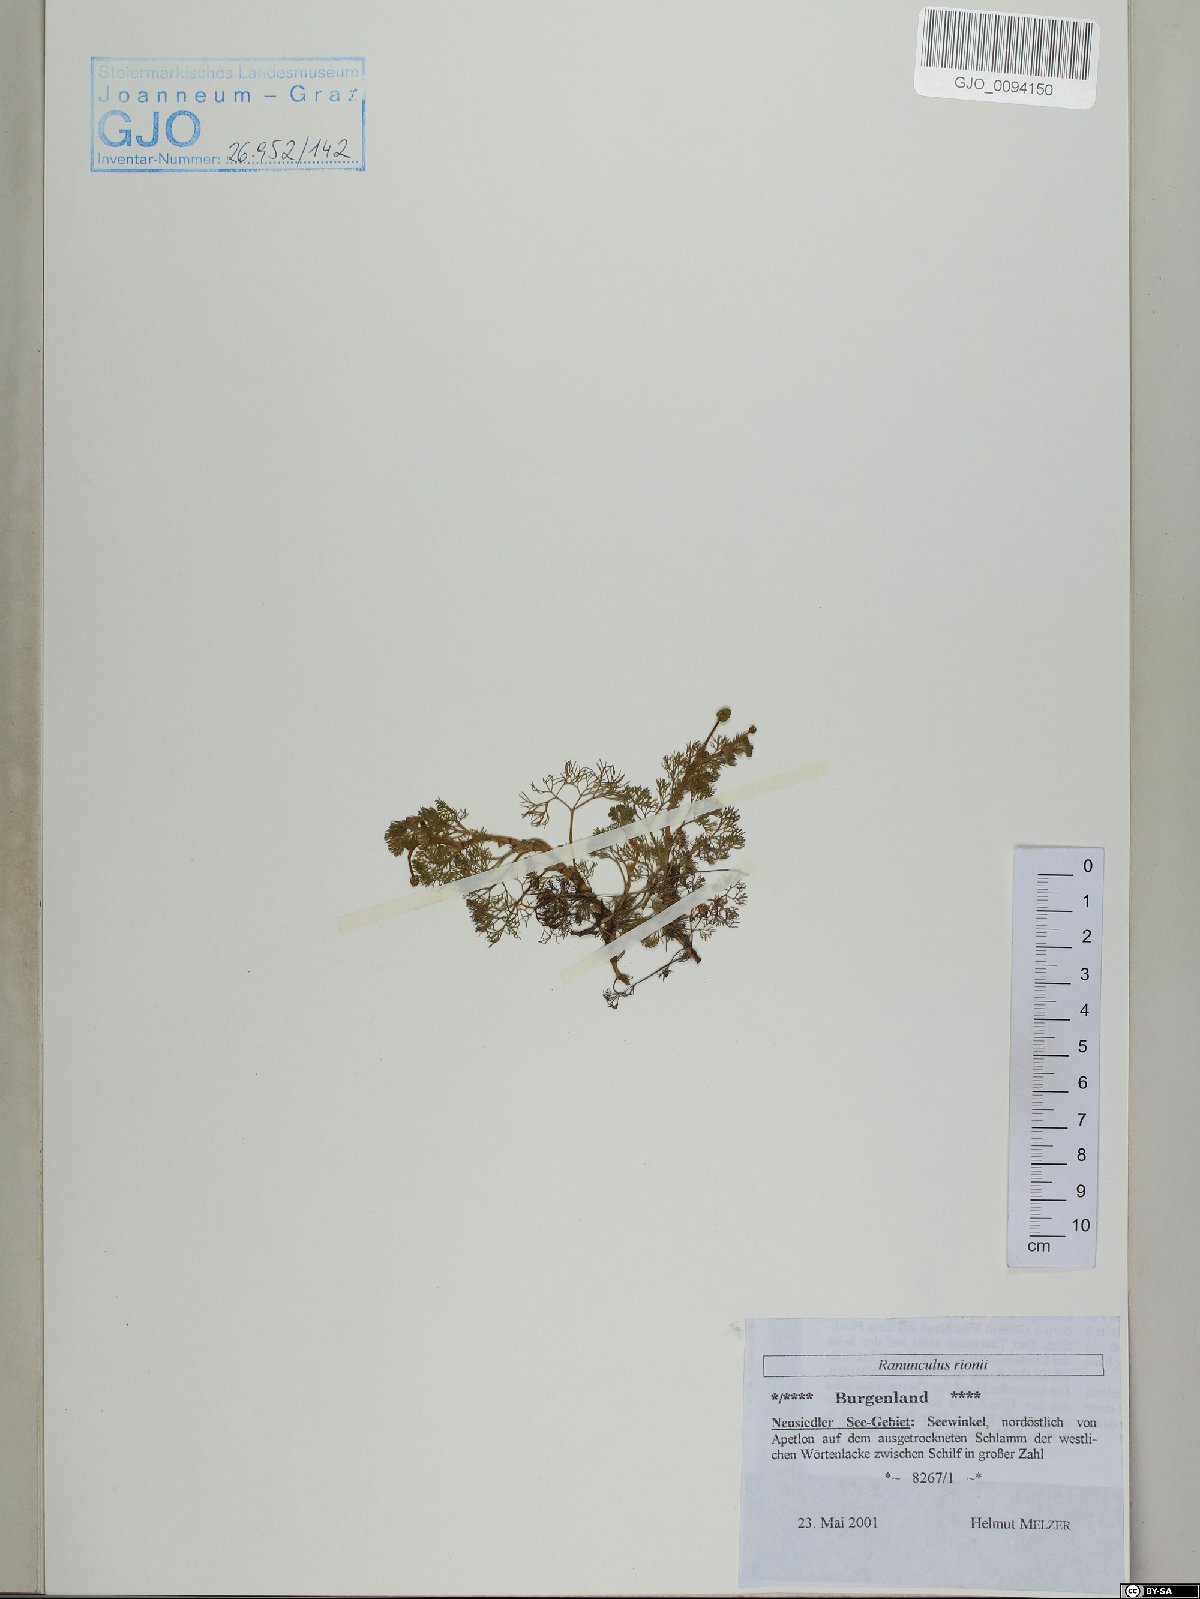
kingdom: Plantae
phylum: Tracheophyta
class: Magnoliopsida
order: Ranunculales
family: Ranunculaceae
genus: Ranunculus
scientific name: Ranunculus rionii
